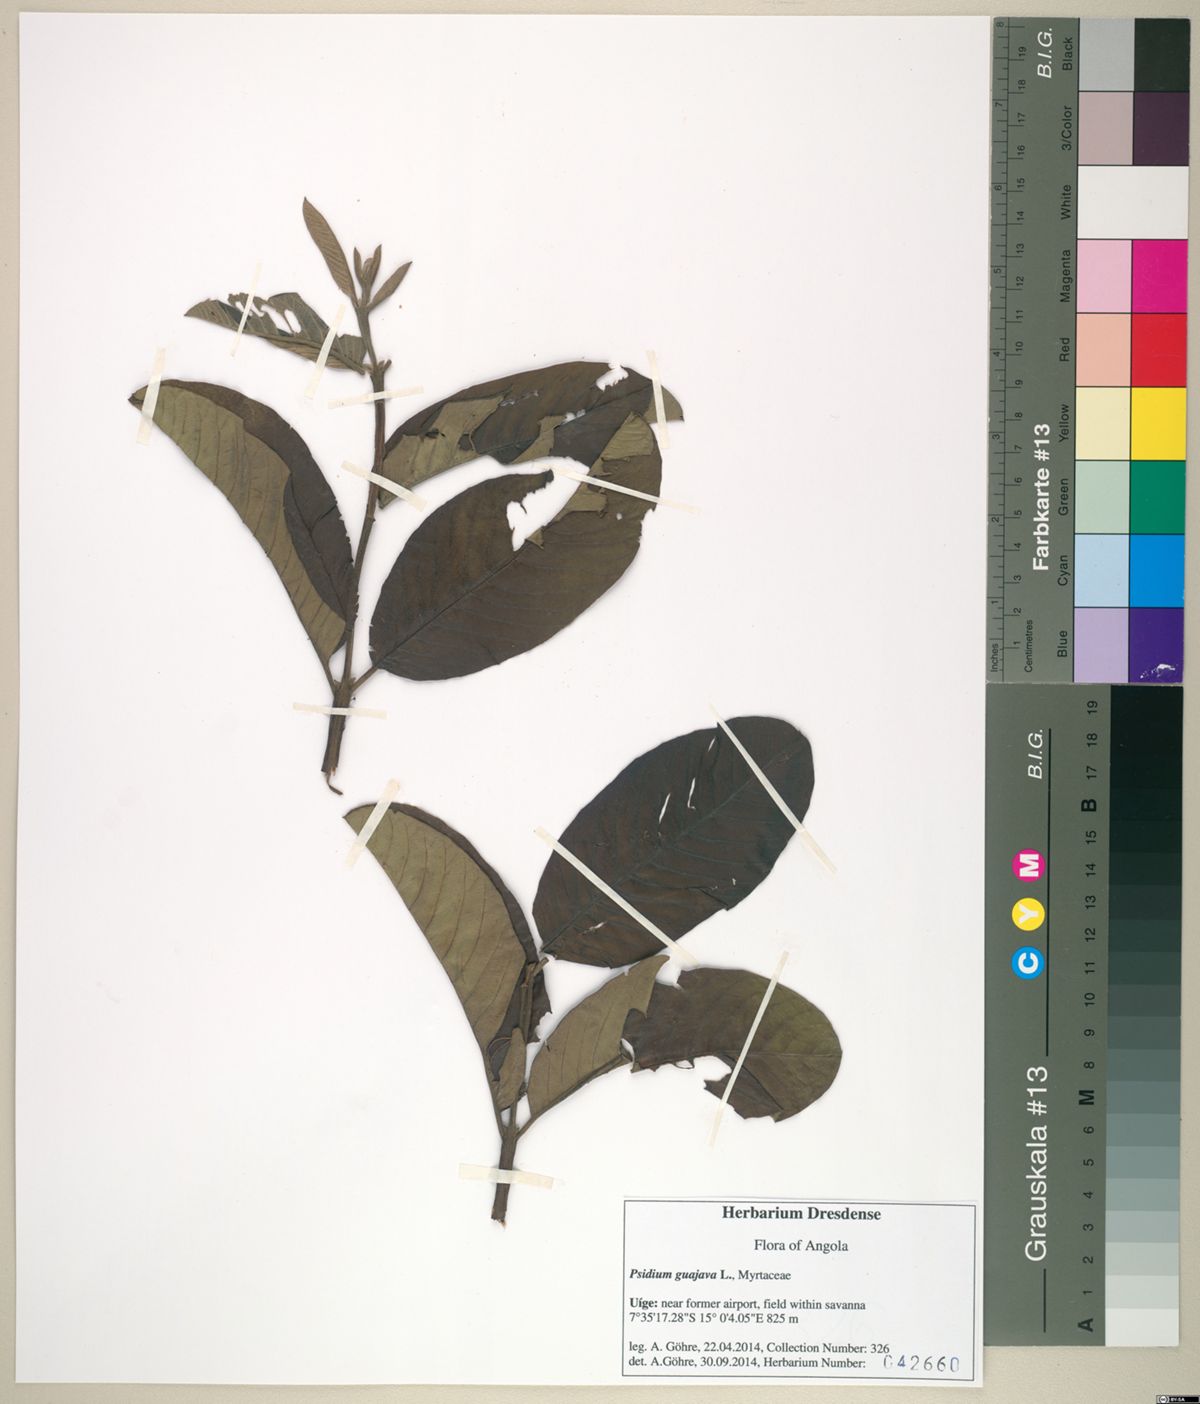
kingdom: Plantae
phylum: Tracheophyta
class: Magnoliopsida
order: Myrtales
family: Myrtaceae
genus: Psidium
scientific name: Psidium guajava
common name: Guava
